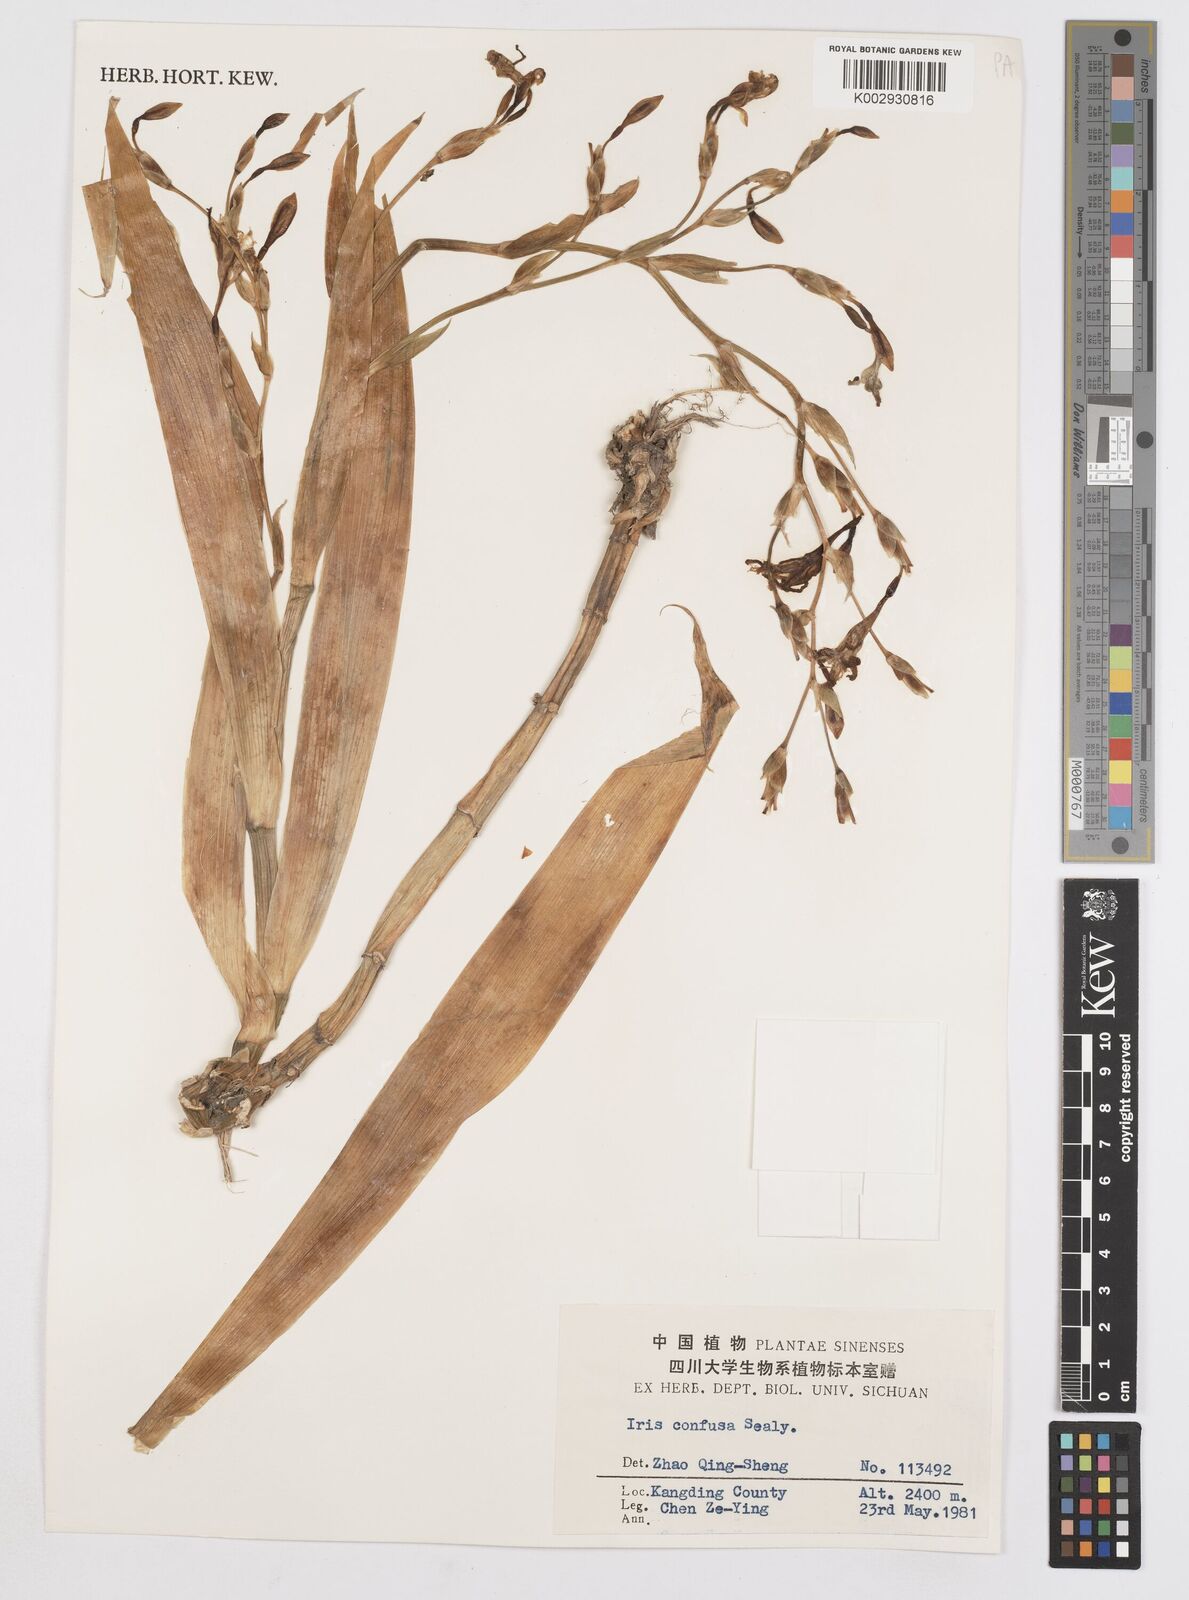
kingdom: Plantae
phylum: Tracheophyta
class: Liliopsida
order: Asparagales
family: Iridaceae
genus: Iris
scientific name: Iris
